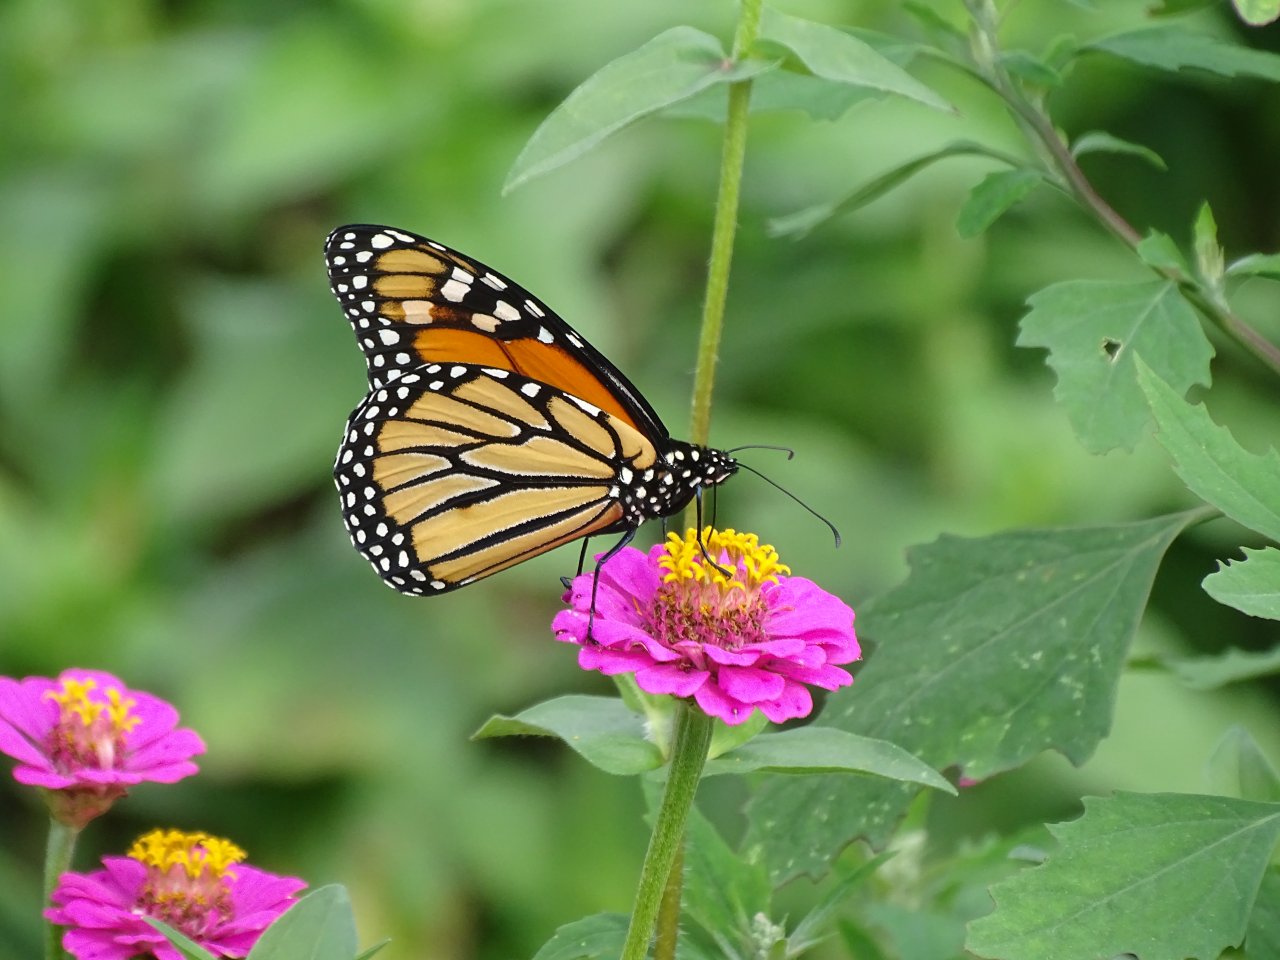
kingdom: Animalia
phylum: Arthropoda
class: Insecta
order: Lepidoptera
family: Nymphalidae
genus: Danaus
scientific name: Danaus plexippus
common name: Monarch
